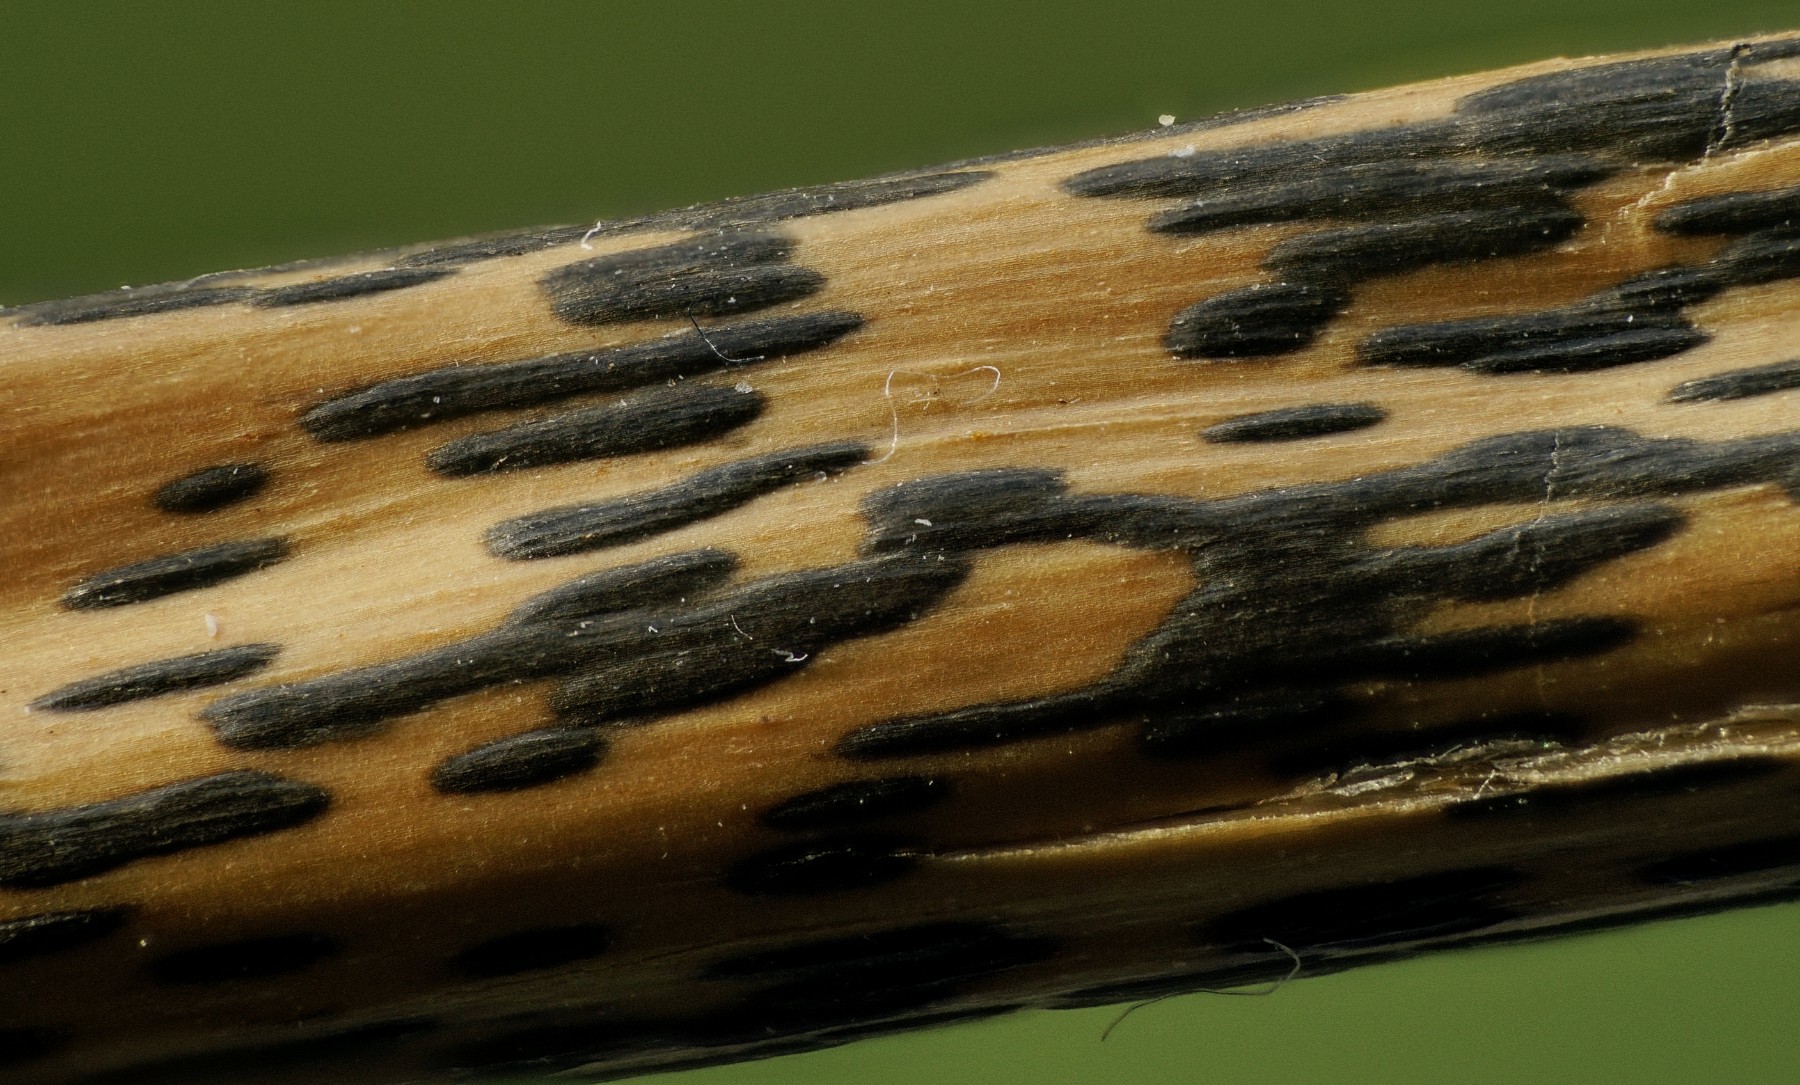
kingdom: Fungi
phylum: Ascomycota
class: Dothideomycetes
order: Pleosporales
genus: Rhopographus
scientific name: Rhopographus filicinus
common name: Bracken map
